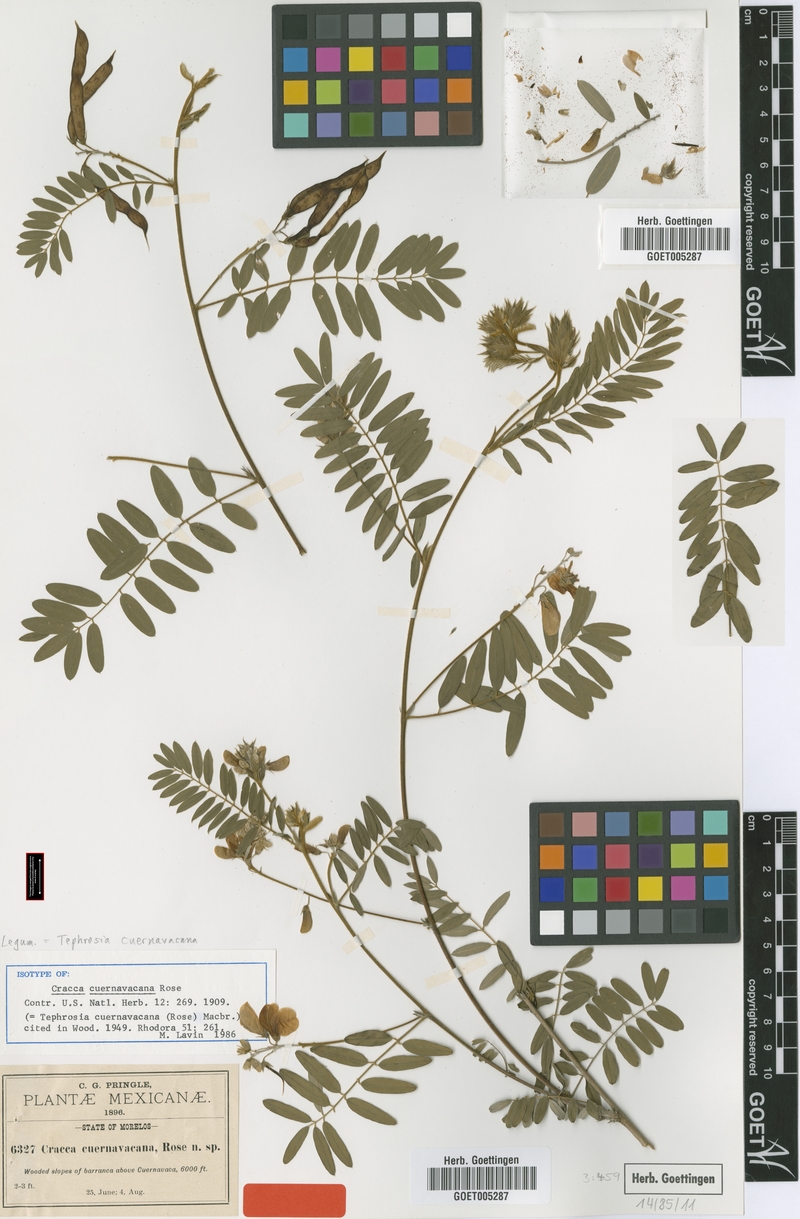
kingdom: Plantae
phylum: Tracheophyta
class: Magnoliopsida
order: Fabales
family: Fabaceae
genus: Tephrosia
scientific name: Tephrosia cuernavacana
